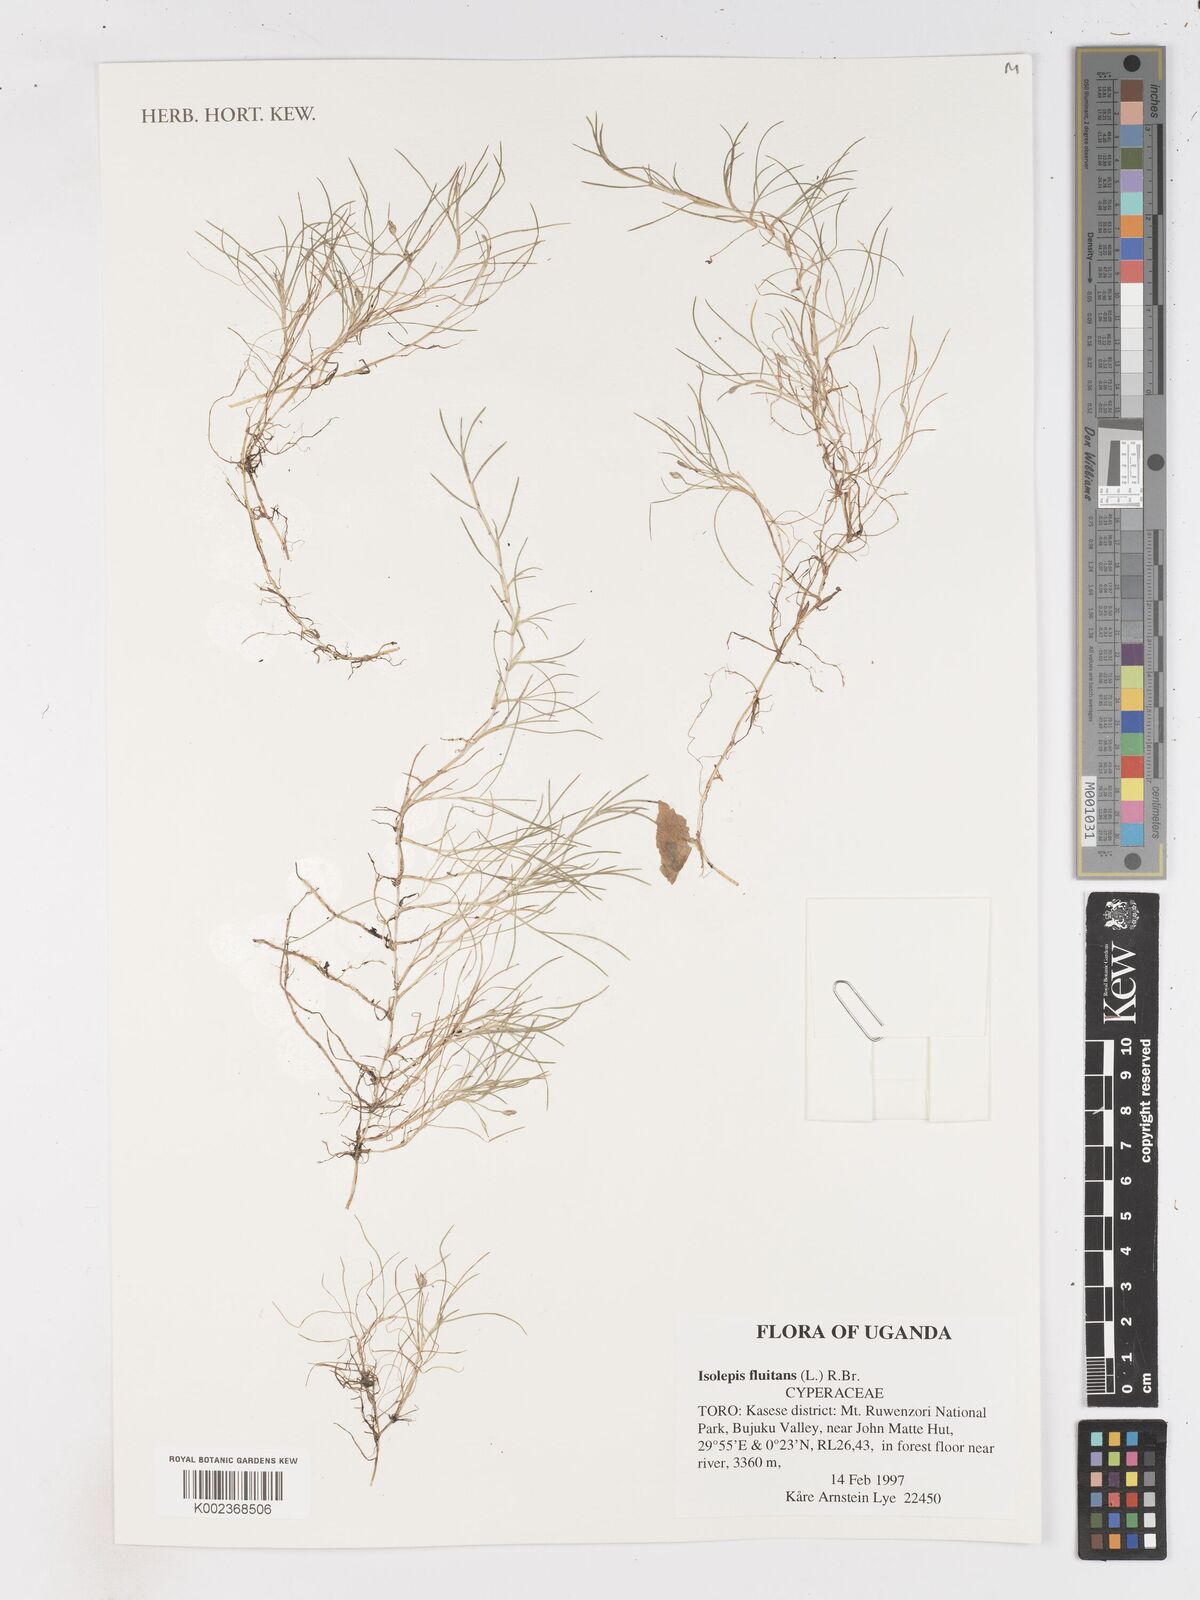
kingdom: Plantae
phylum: Tracheophyta
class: Liliopsida
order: Poales
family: Cyperaceae
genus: Isolepis
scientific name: Isolepis fluitans
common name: Floating club-rush
